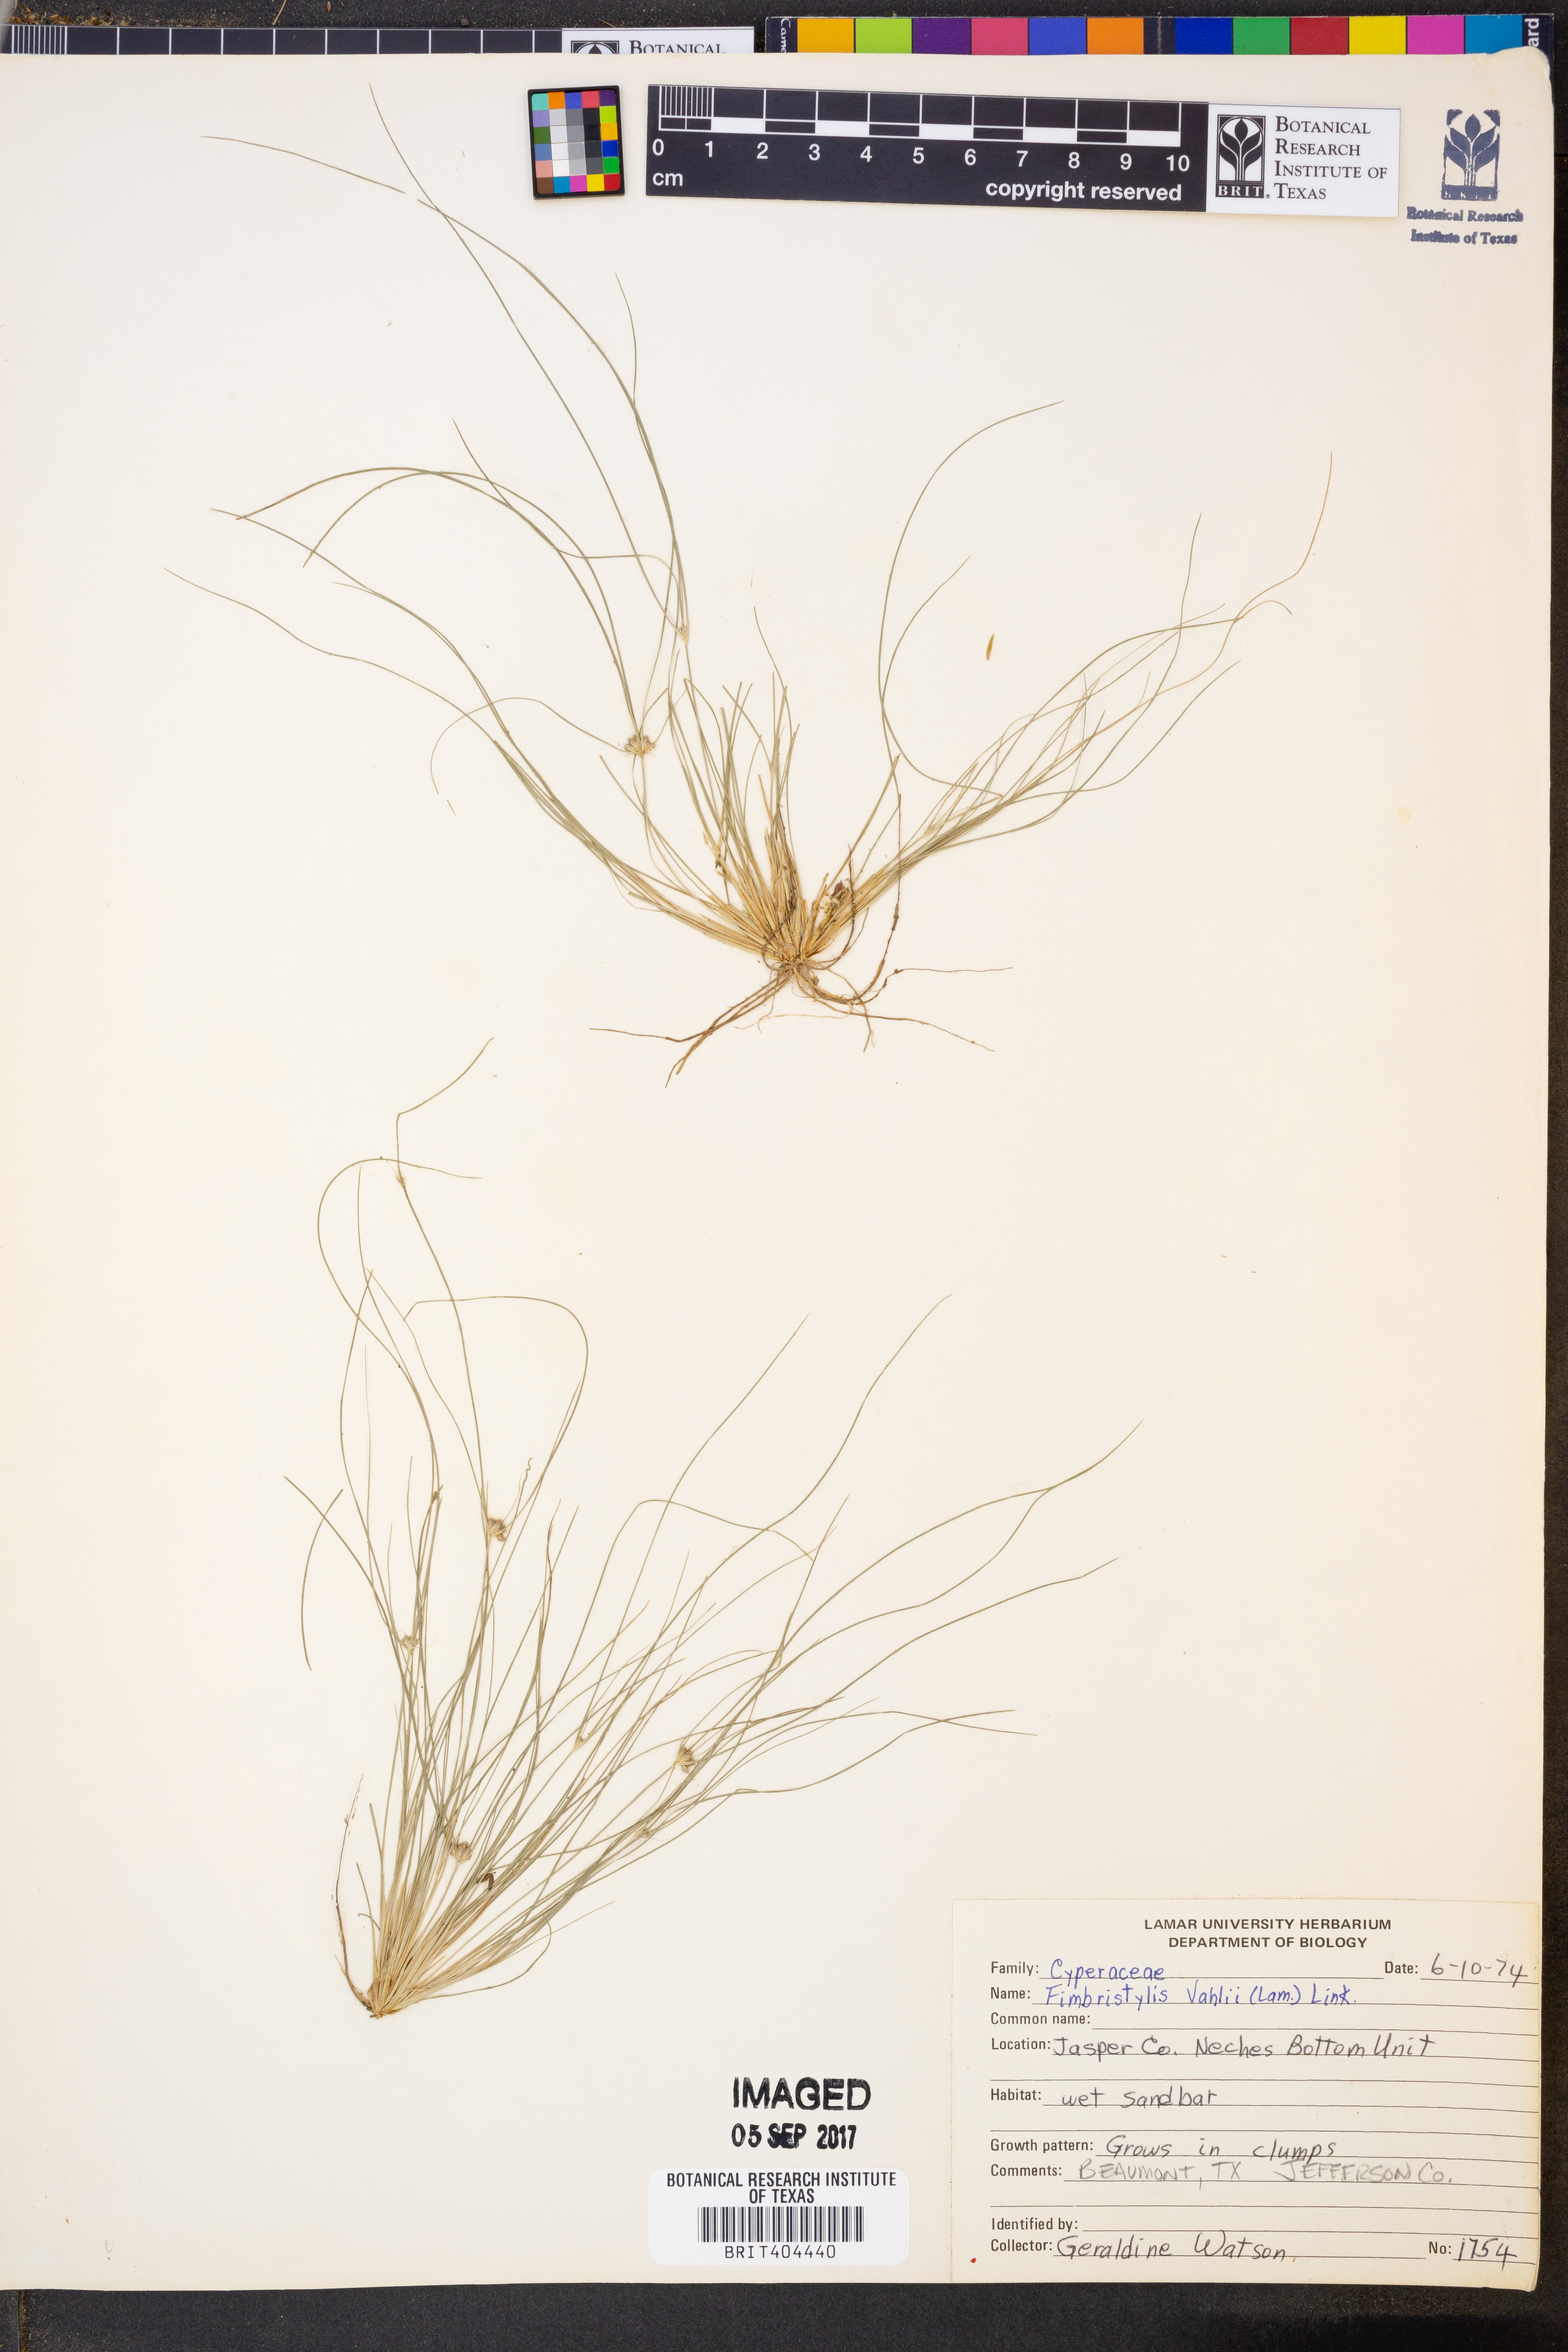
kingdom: Plantae
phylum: Tracheophyta
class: Liliopsida
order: Poales
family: Cyperaceae
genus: Fimbristylis
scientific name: Fimbristylis vahlii
